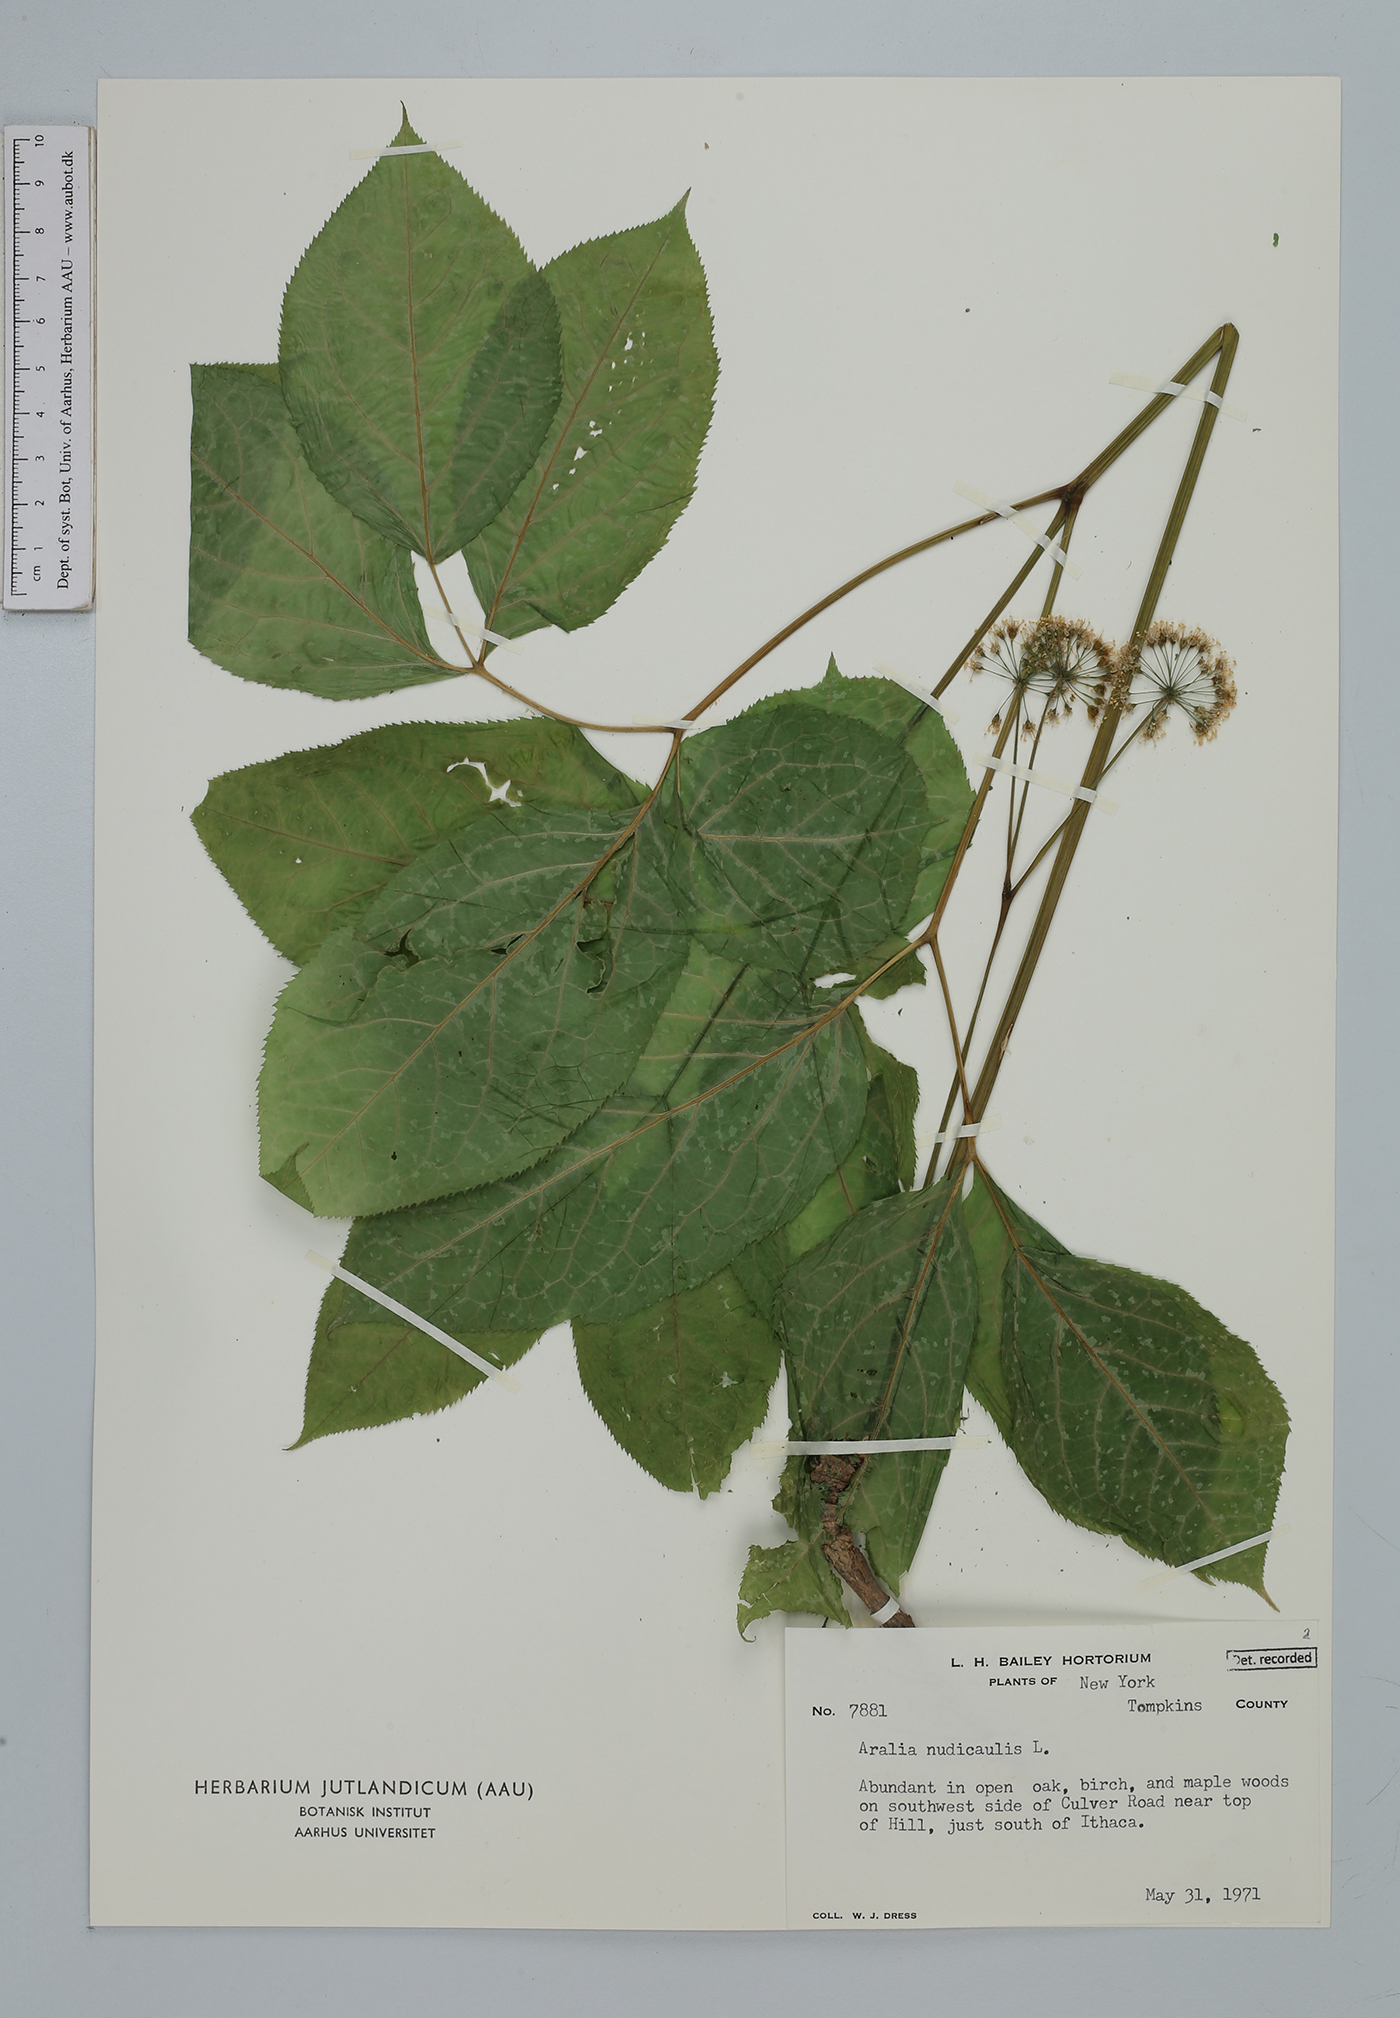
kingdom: Plantae
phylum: Tracheophyta
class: Magnoliopsida
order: Apiales
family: Araliaceae
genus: Aralia
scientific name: Aralia nudicaulis
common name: Wild sarsaparilla
